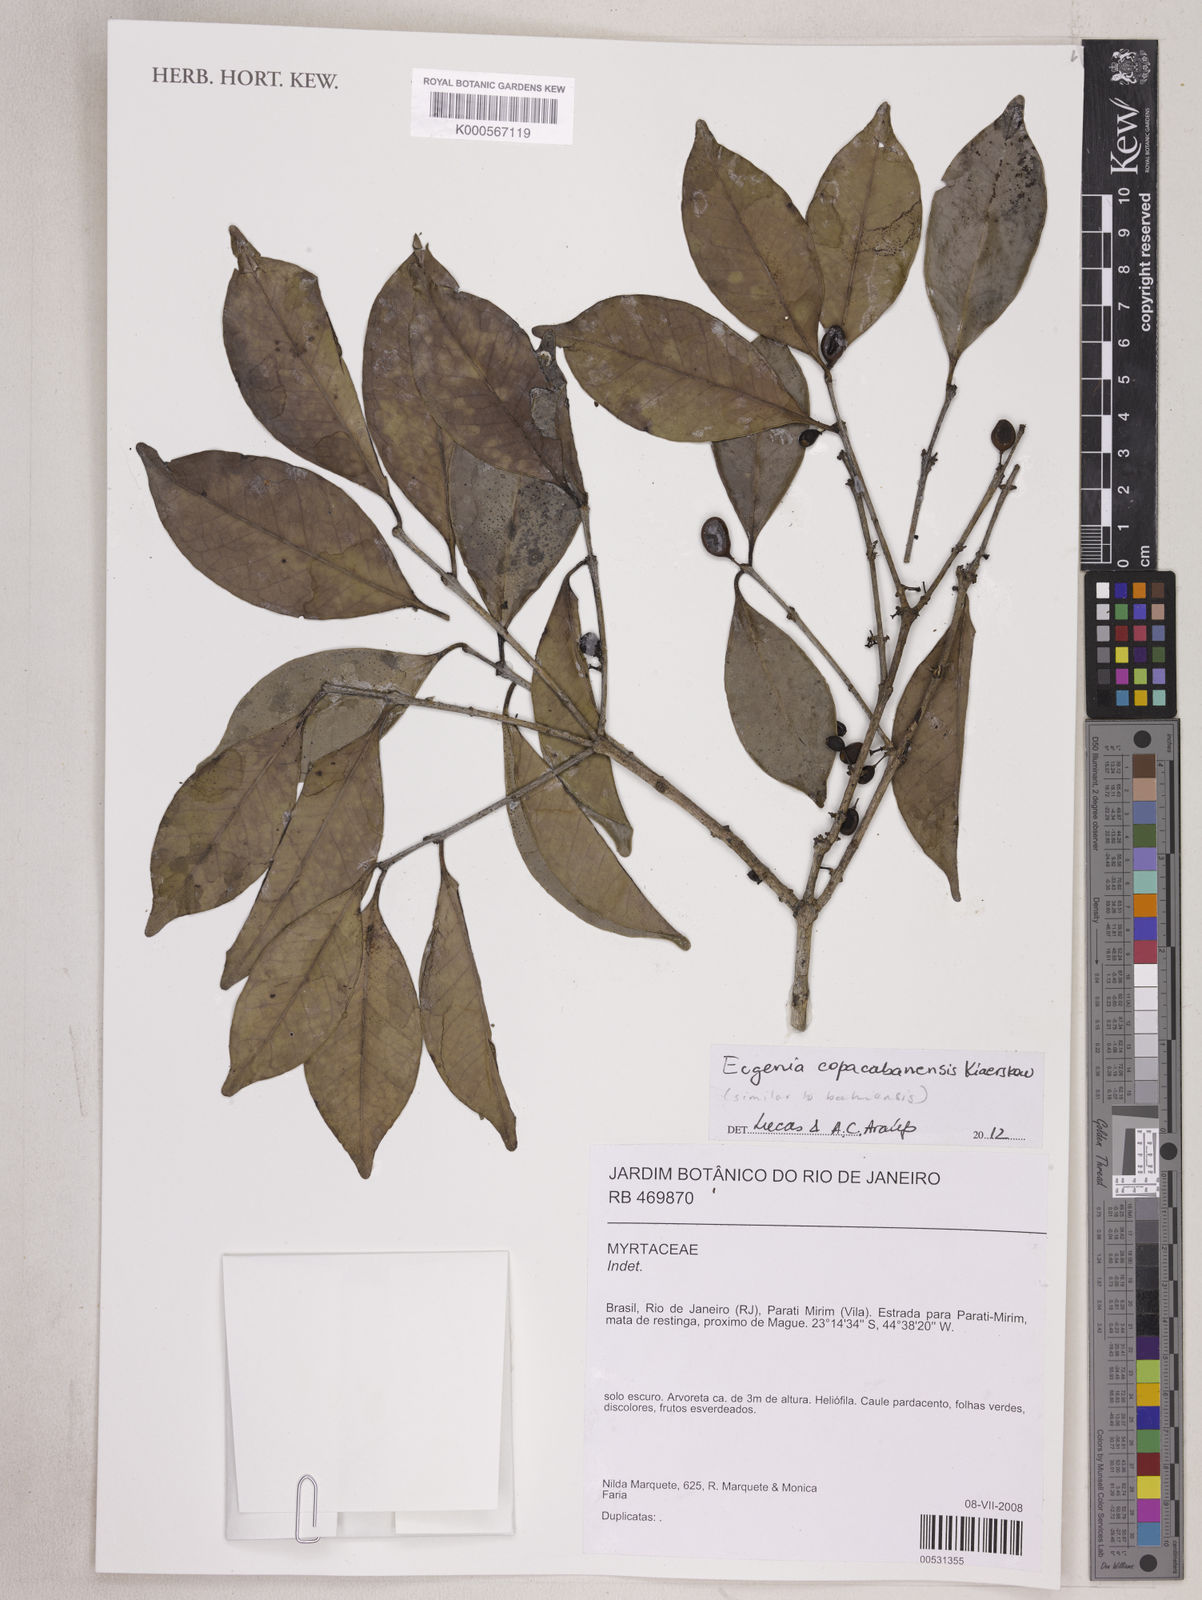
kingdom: Plantae
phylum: Tracheophyta
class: Magnoliopsida
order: Myrtales
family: Myrtaceae
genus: Eugenia
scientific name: Eugenia
